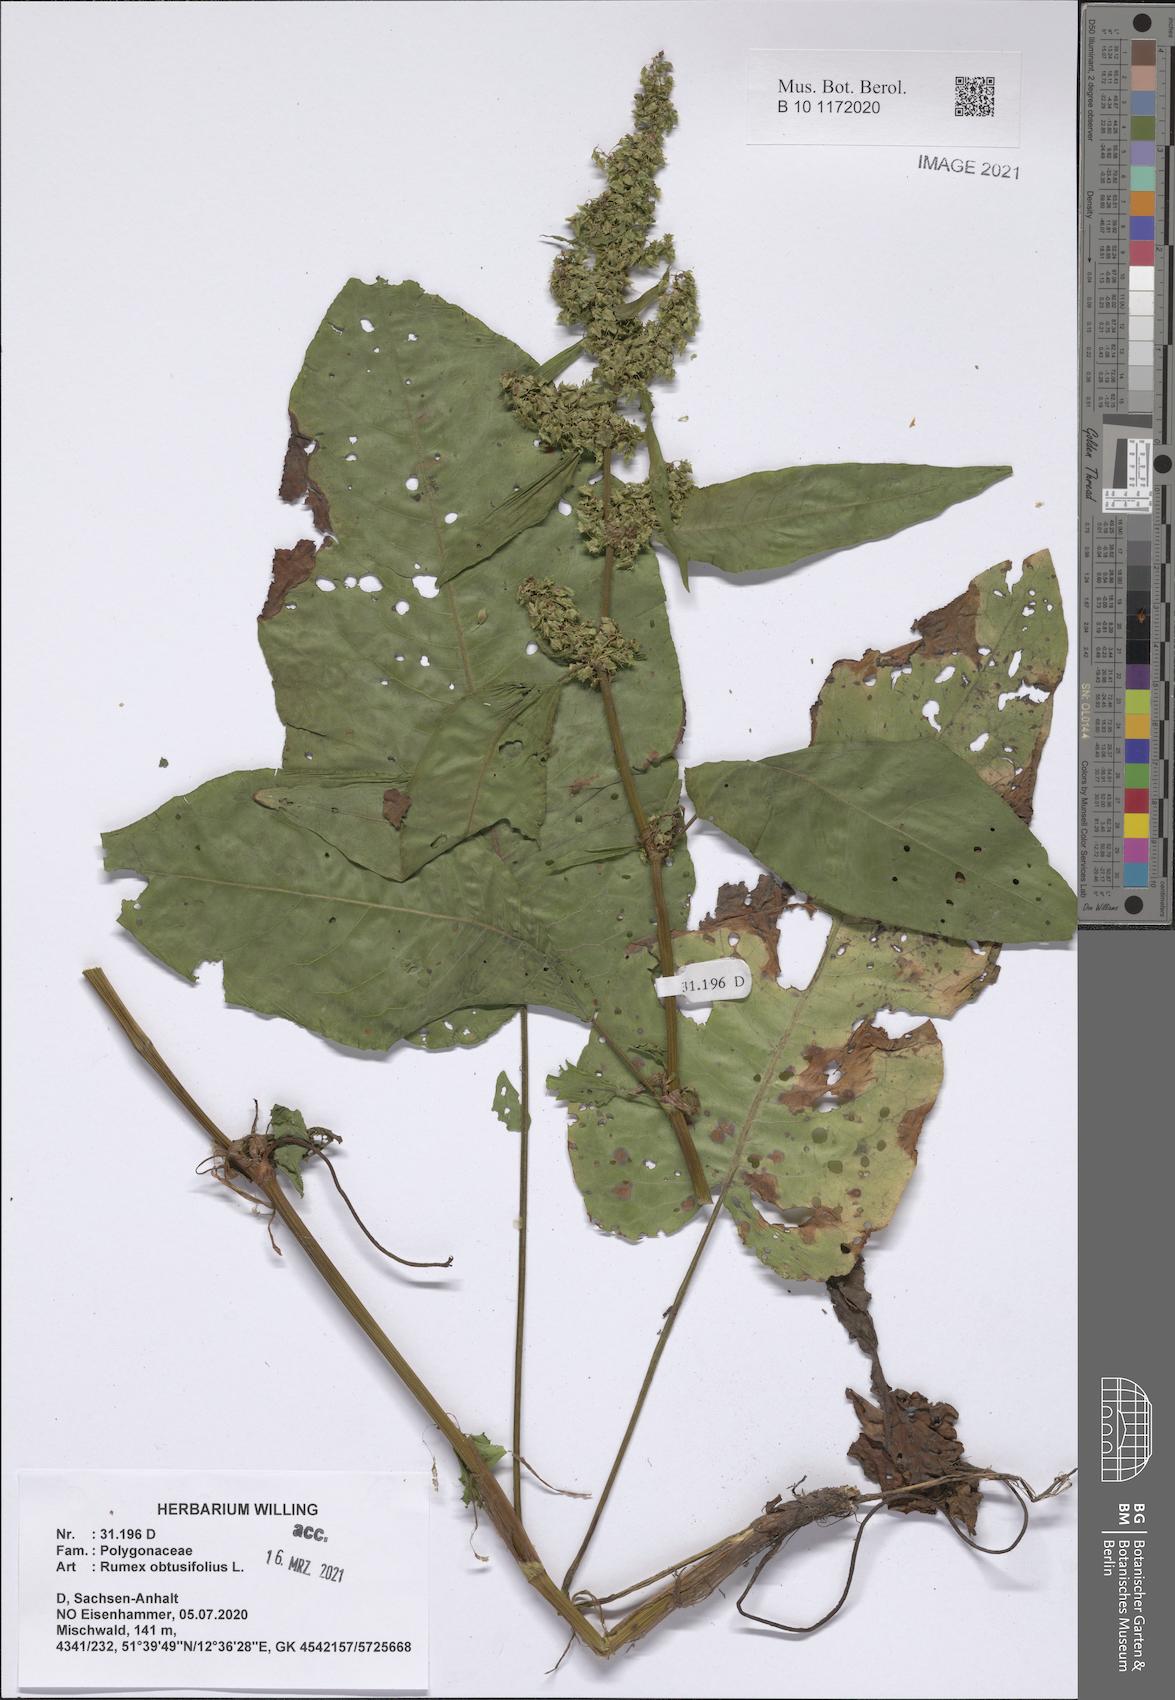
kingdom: Plantae
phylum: Tracheophyta
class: Magnoliopsida
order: Caryophyllales
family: Polygonaceae
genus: Rumex
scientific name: Rumex obtusifolius
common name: Bitter dock
